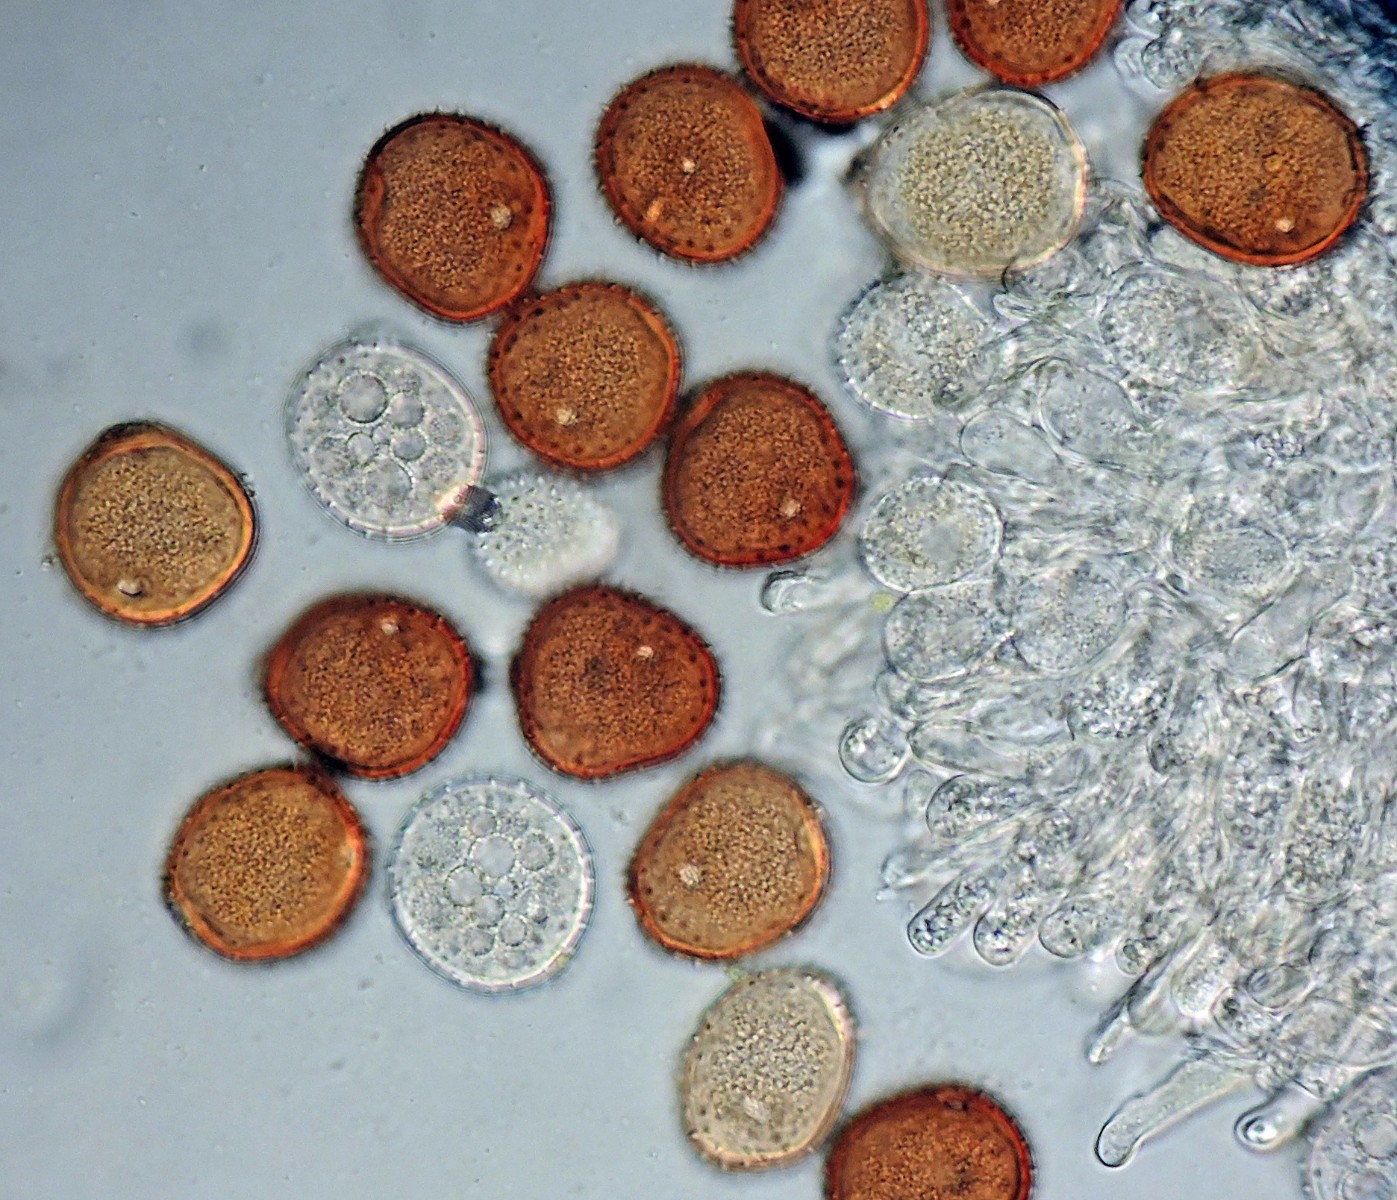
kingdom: Fungi
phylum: Basidiomycota
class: Pucciniomycetes
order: Pucciniales
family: Pucciniaceae
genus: Puccinia
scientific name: Puccinia hieracii
